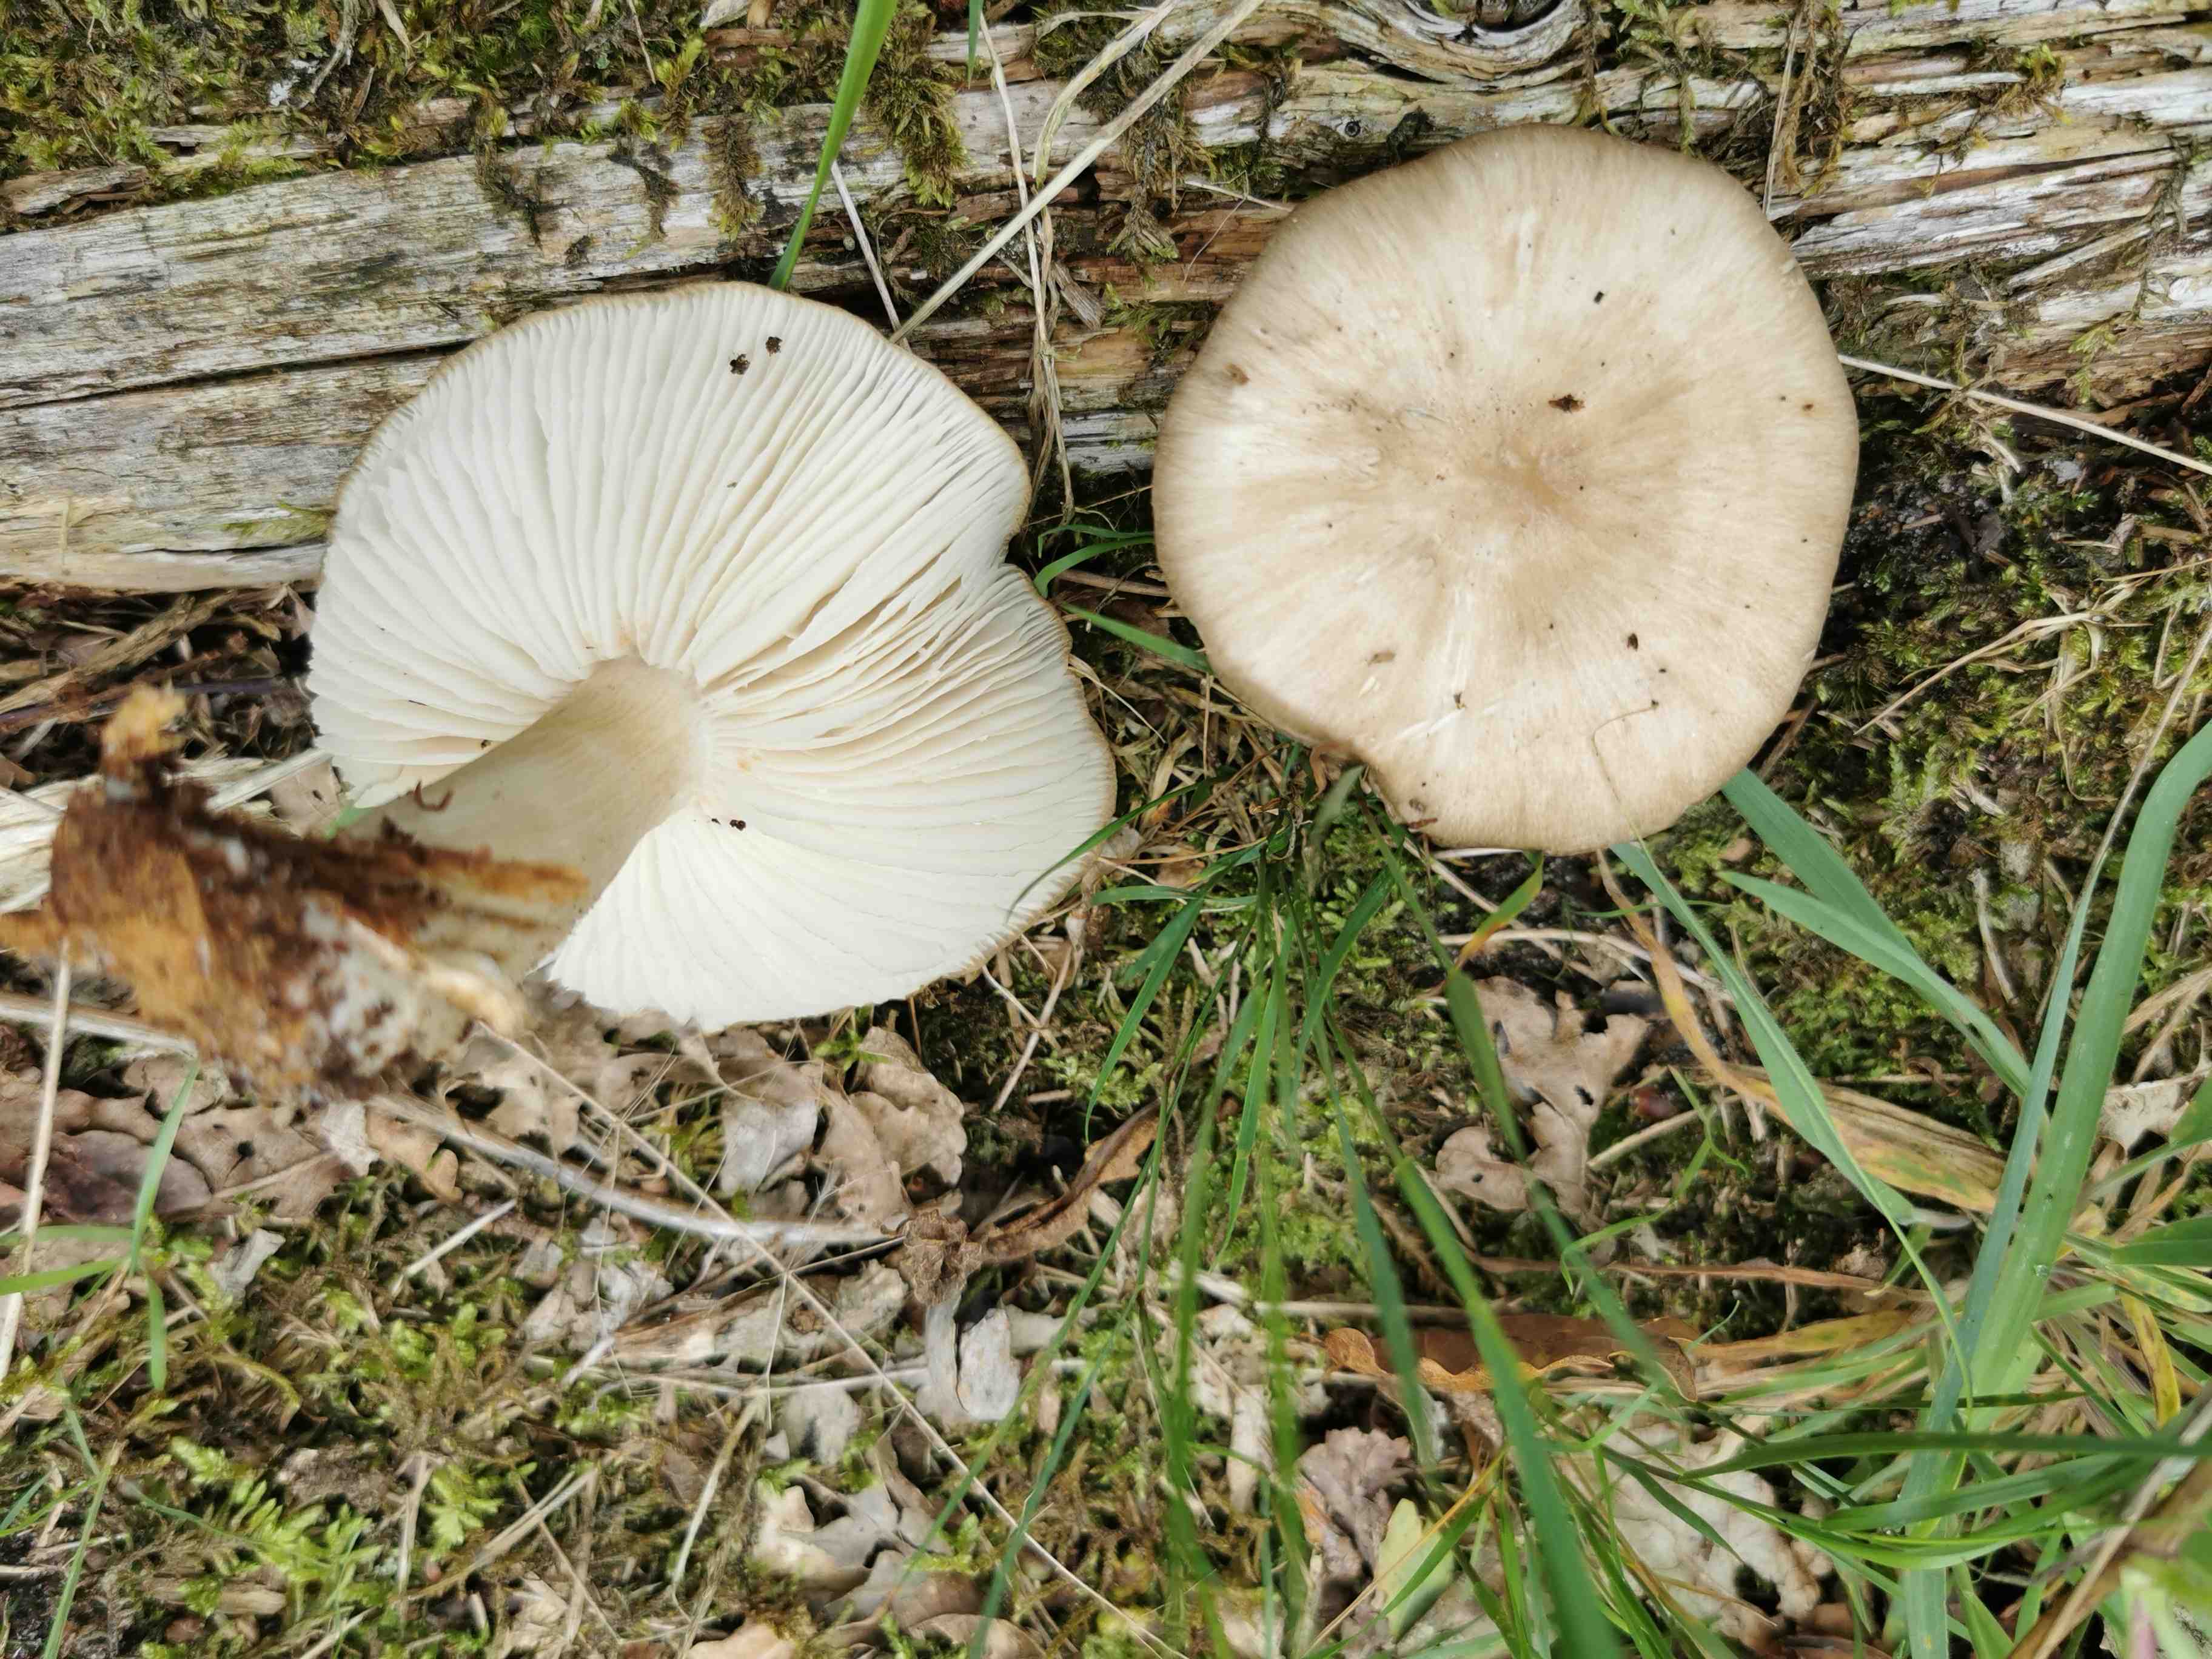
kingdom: Fungi
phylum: Basidiomycota
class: Agaricomycetes
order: Agaricales
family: Tricholomataceae
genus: Megacollybia
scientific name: Megacollybia platyphylla
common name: bredbladet væbnerhat
